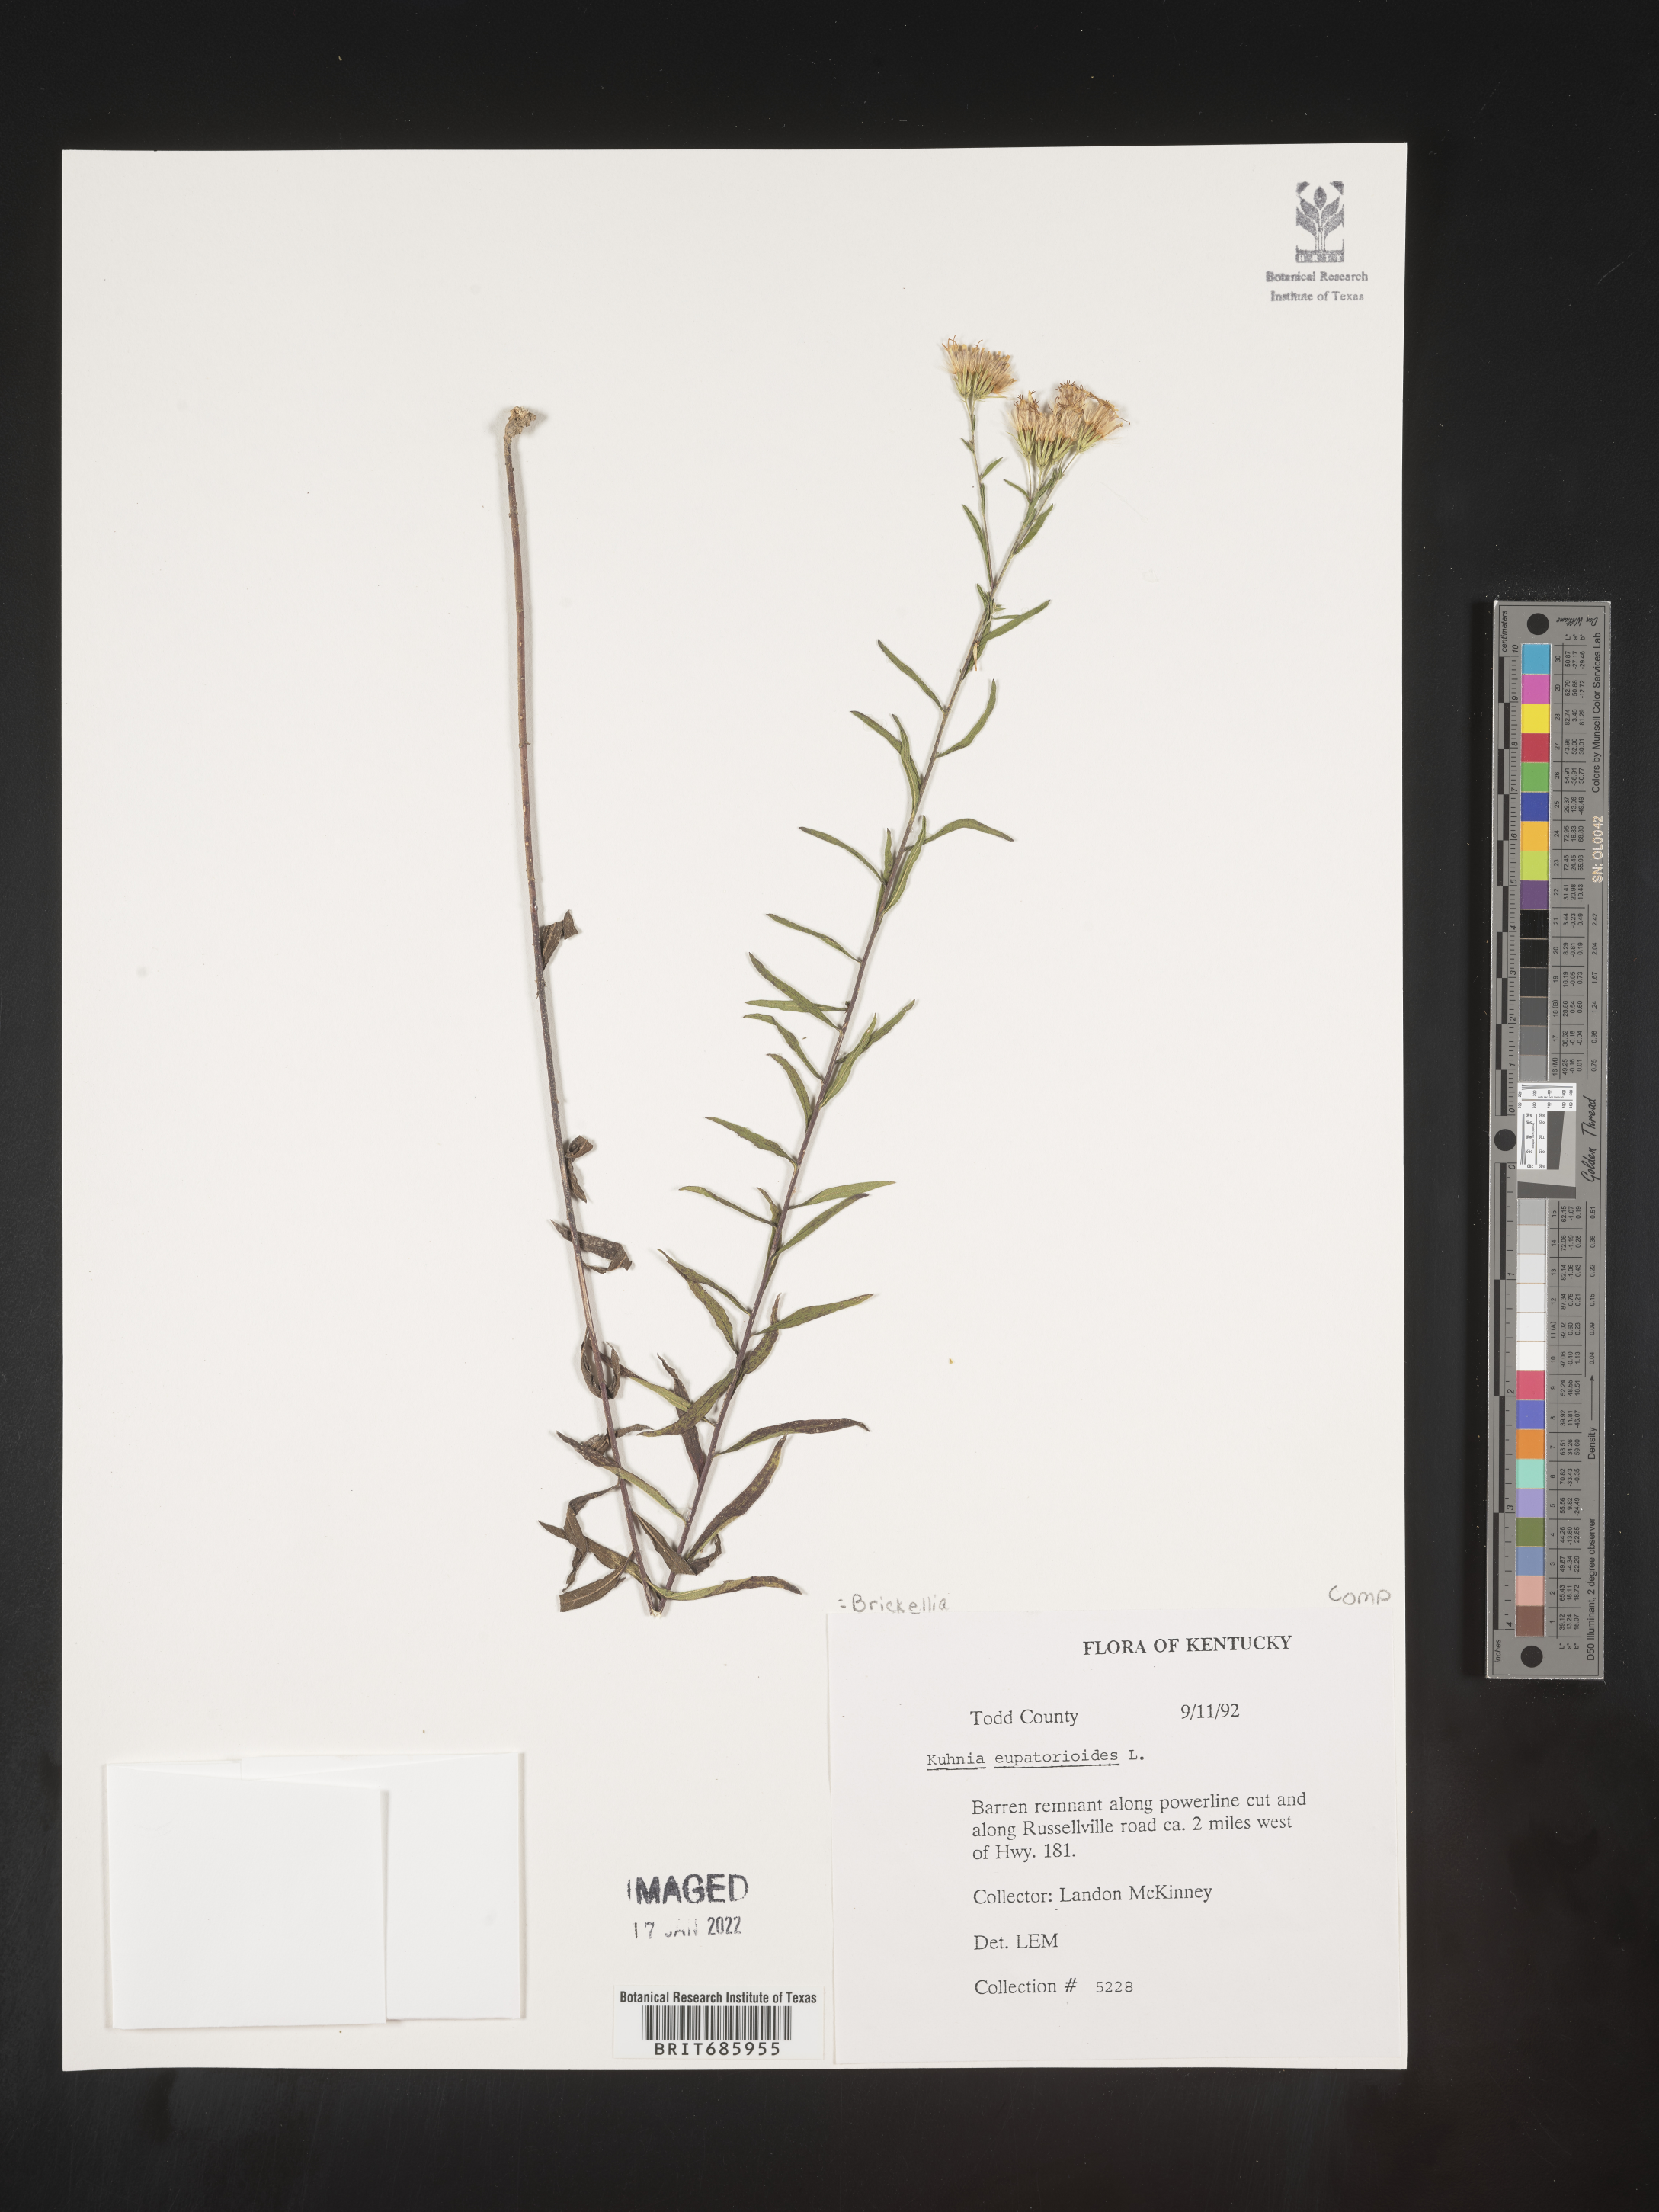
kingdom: Plantae
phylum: Tracheophyta
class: Magnoliopsida
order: Asterales
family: Asteraceae
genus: Brickellia
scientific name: Brickellia eupatorioides
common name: False boneset
